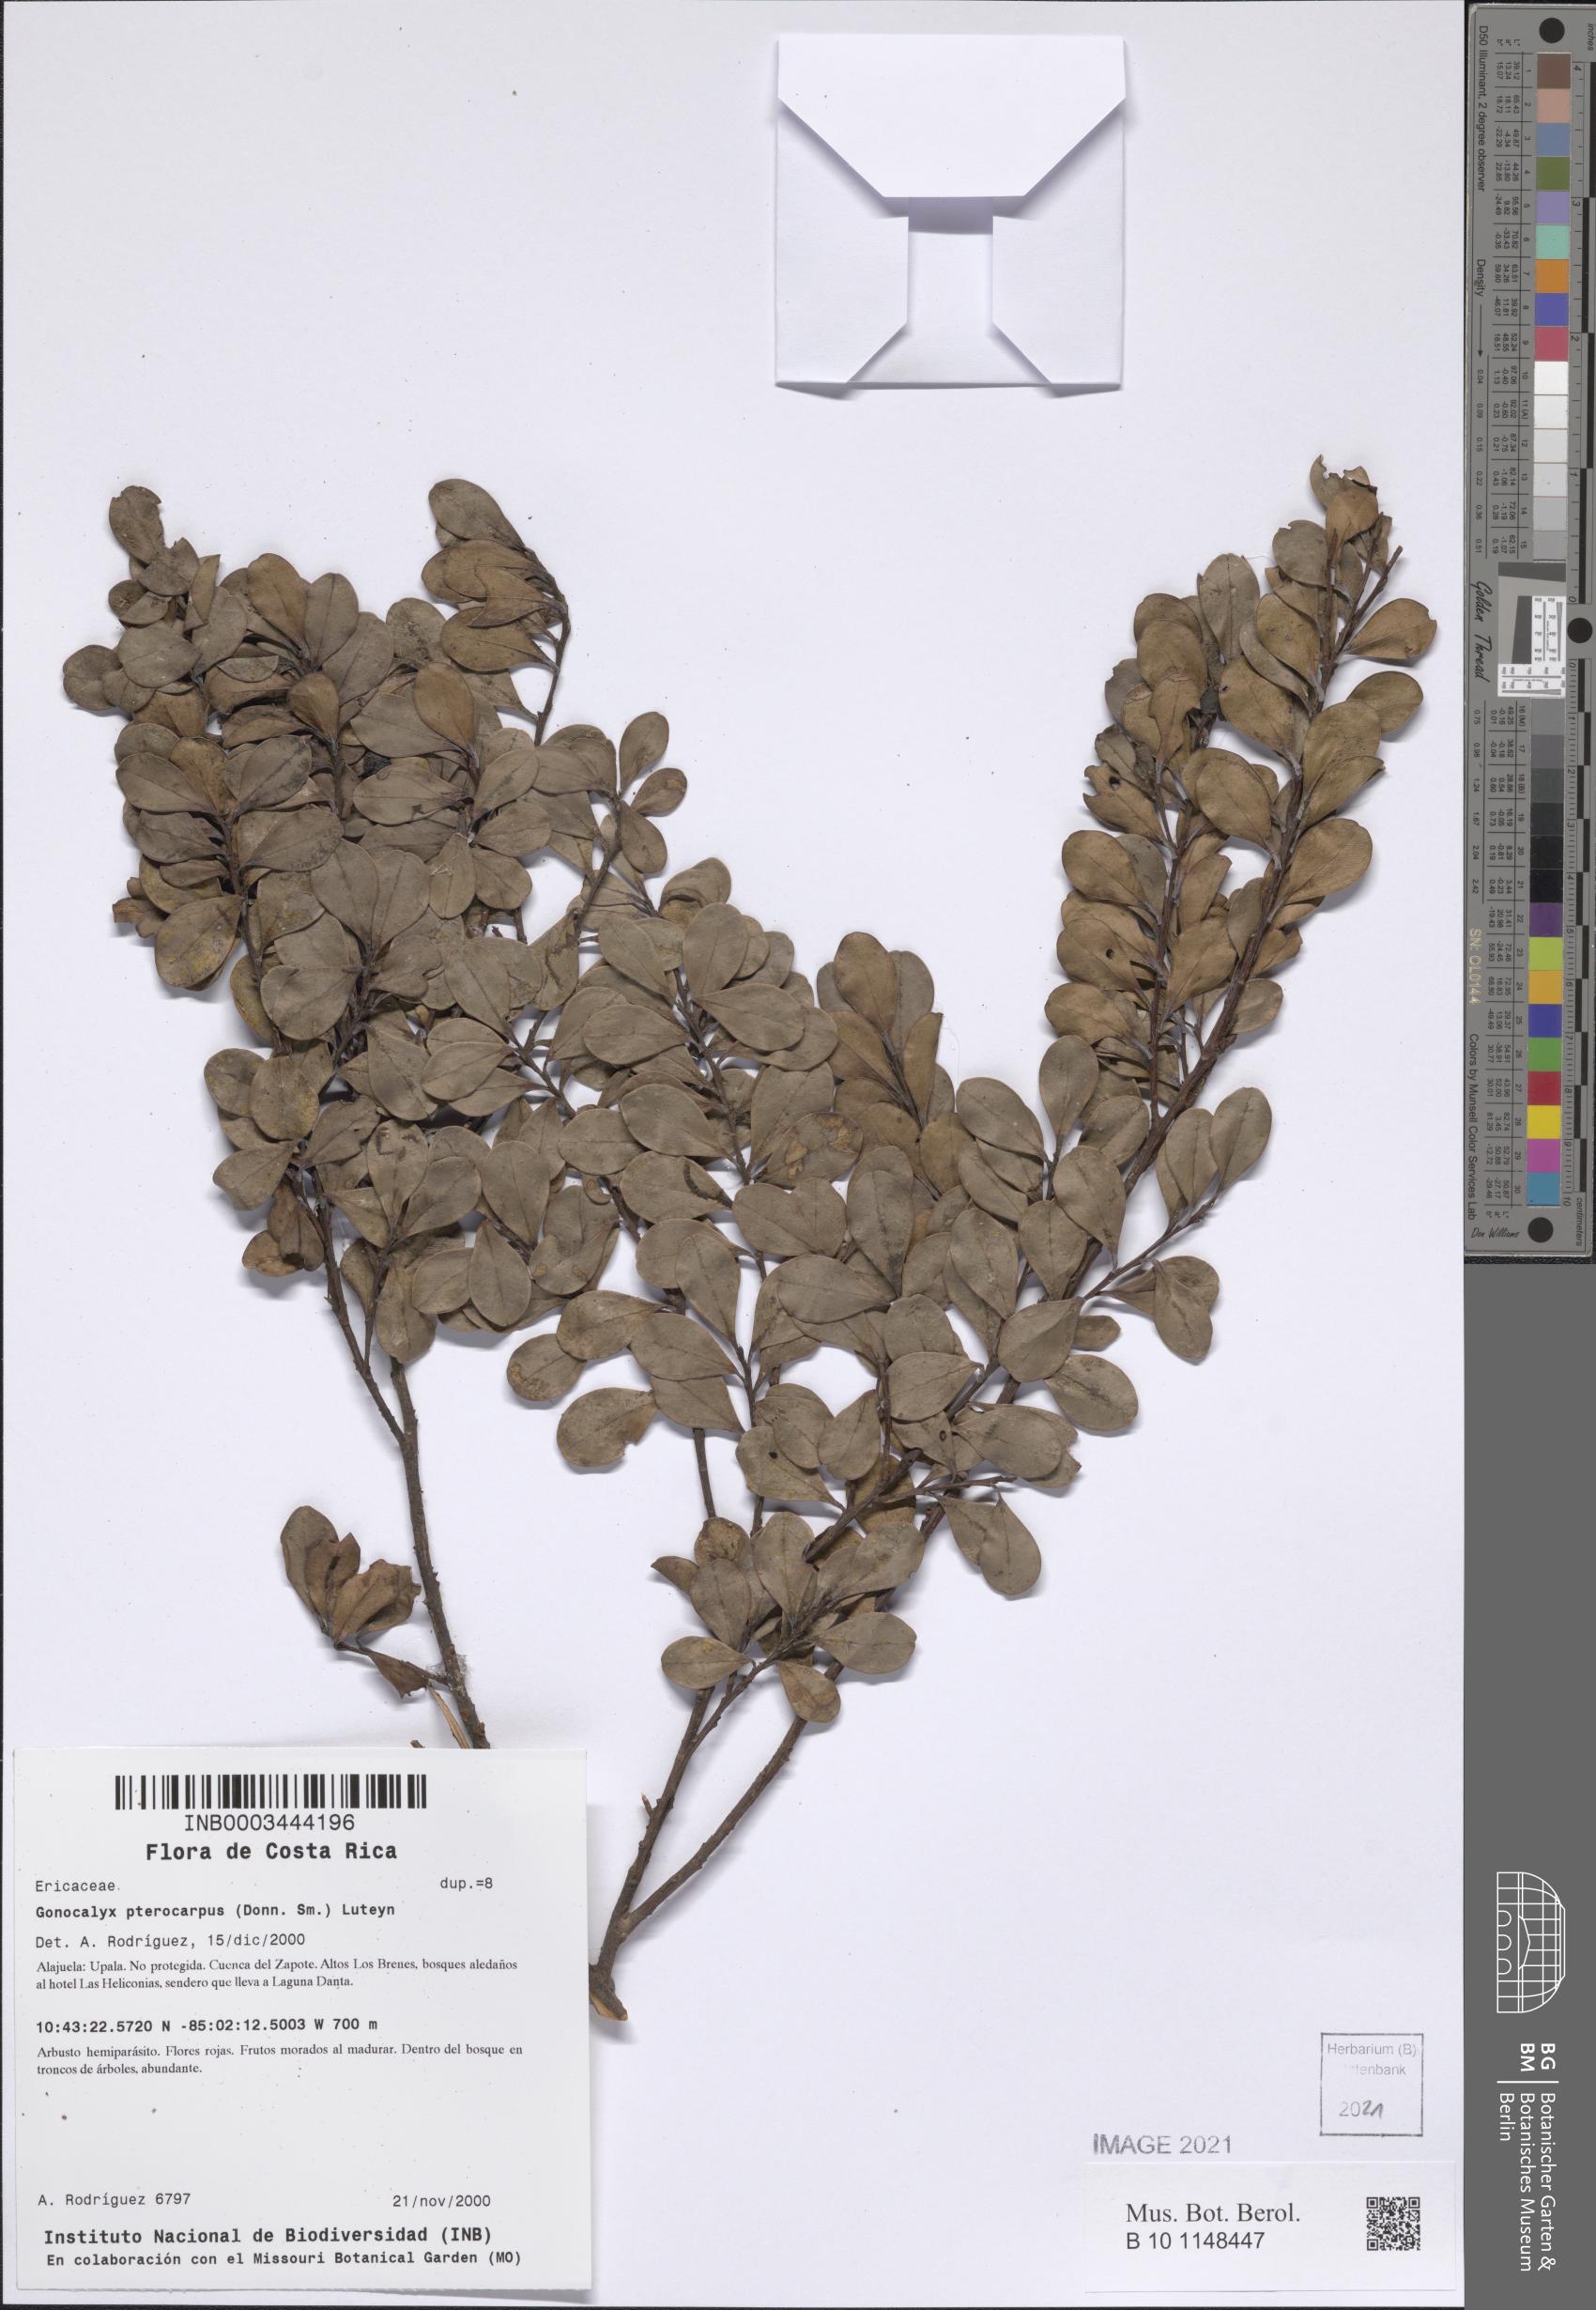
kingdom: Plantae
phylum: Tracheophyta
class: Magnoliopsida
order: Ericales
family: Ericaceae
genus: Gonocalyx
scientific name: Gonocalyx pterocarpus
